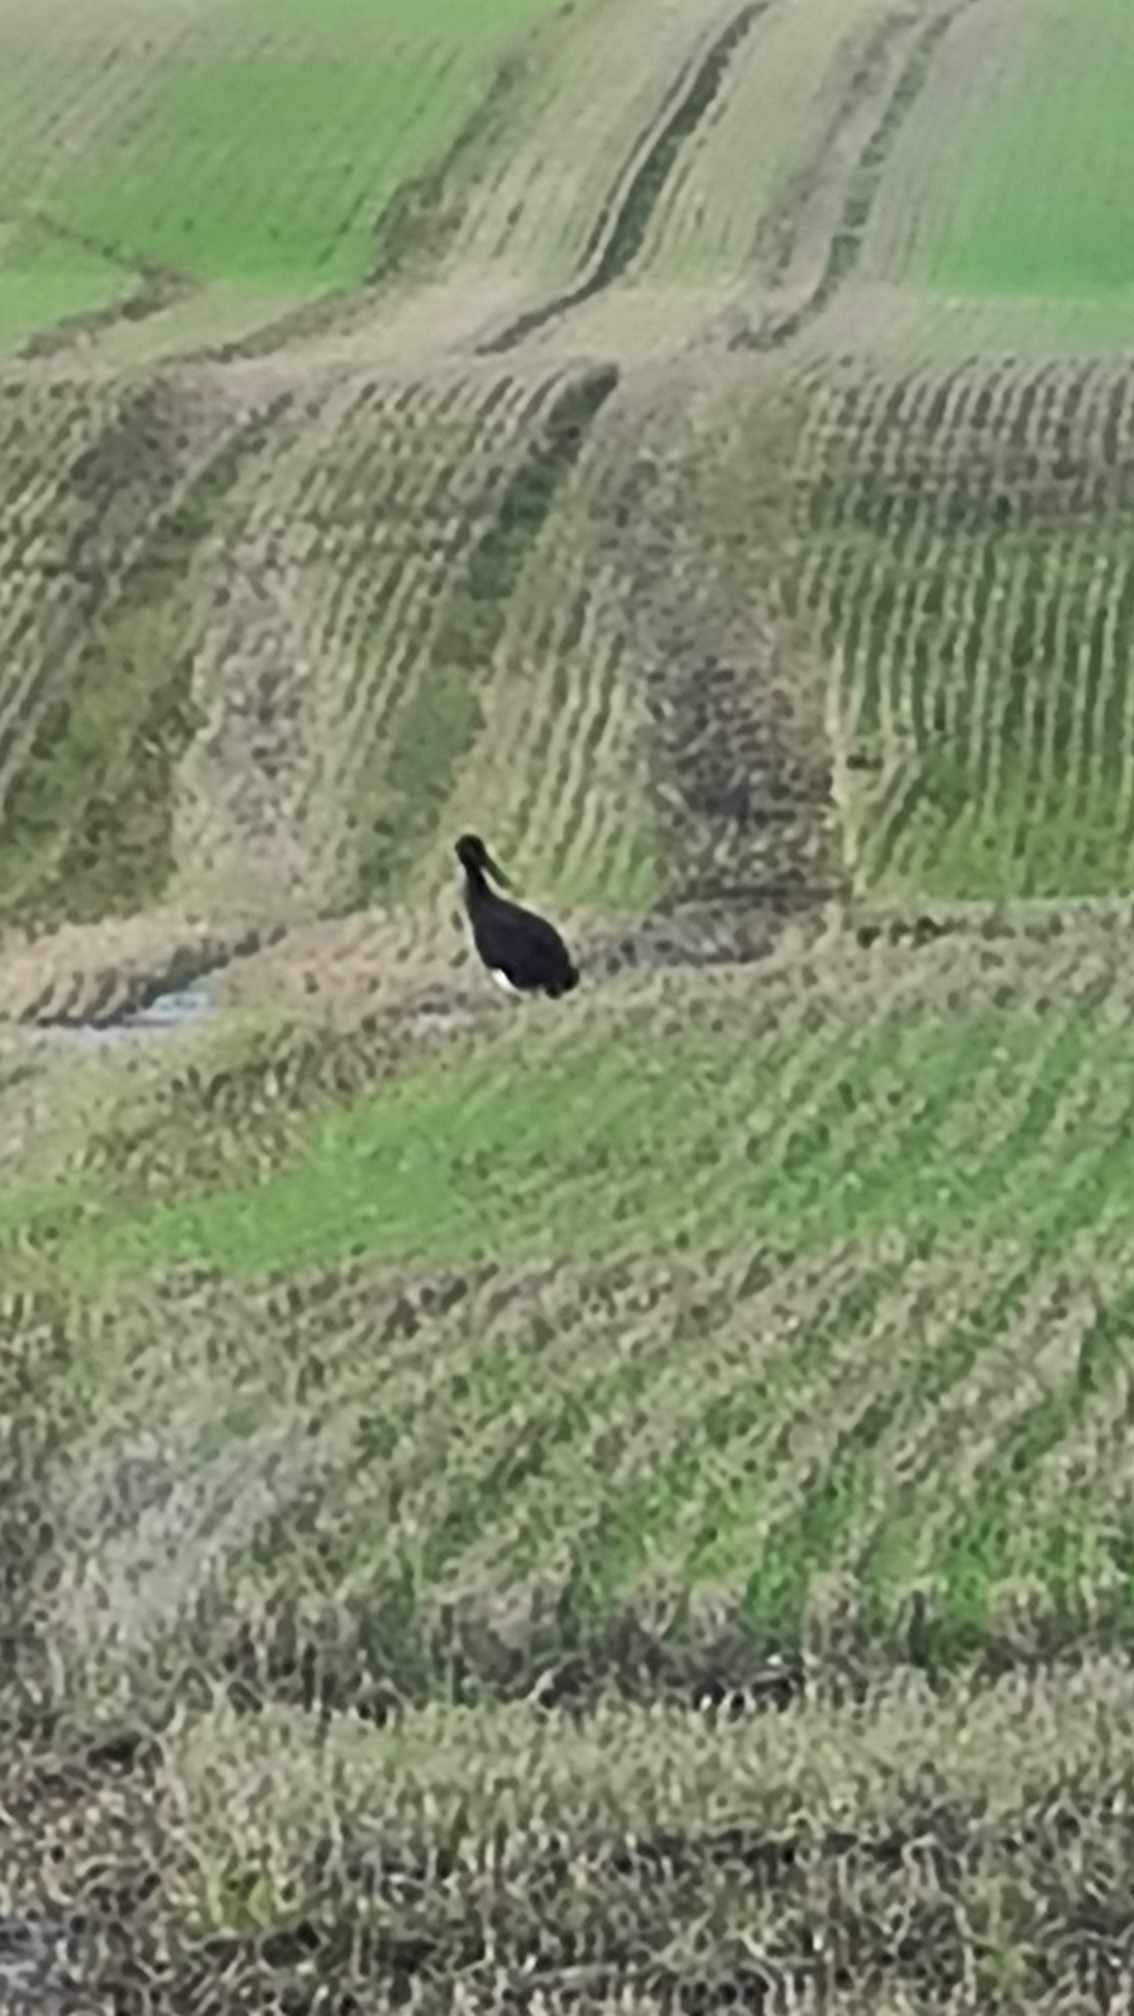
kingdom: Animalia
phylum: Chordata
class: Aves
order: Ciconiiformes
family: Ciconiidae
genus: Ciconia
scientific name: Ciconia nigra
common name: Sort stork
